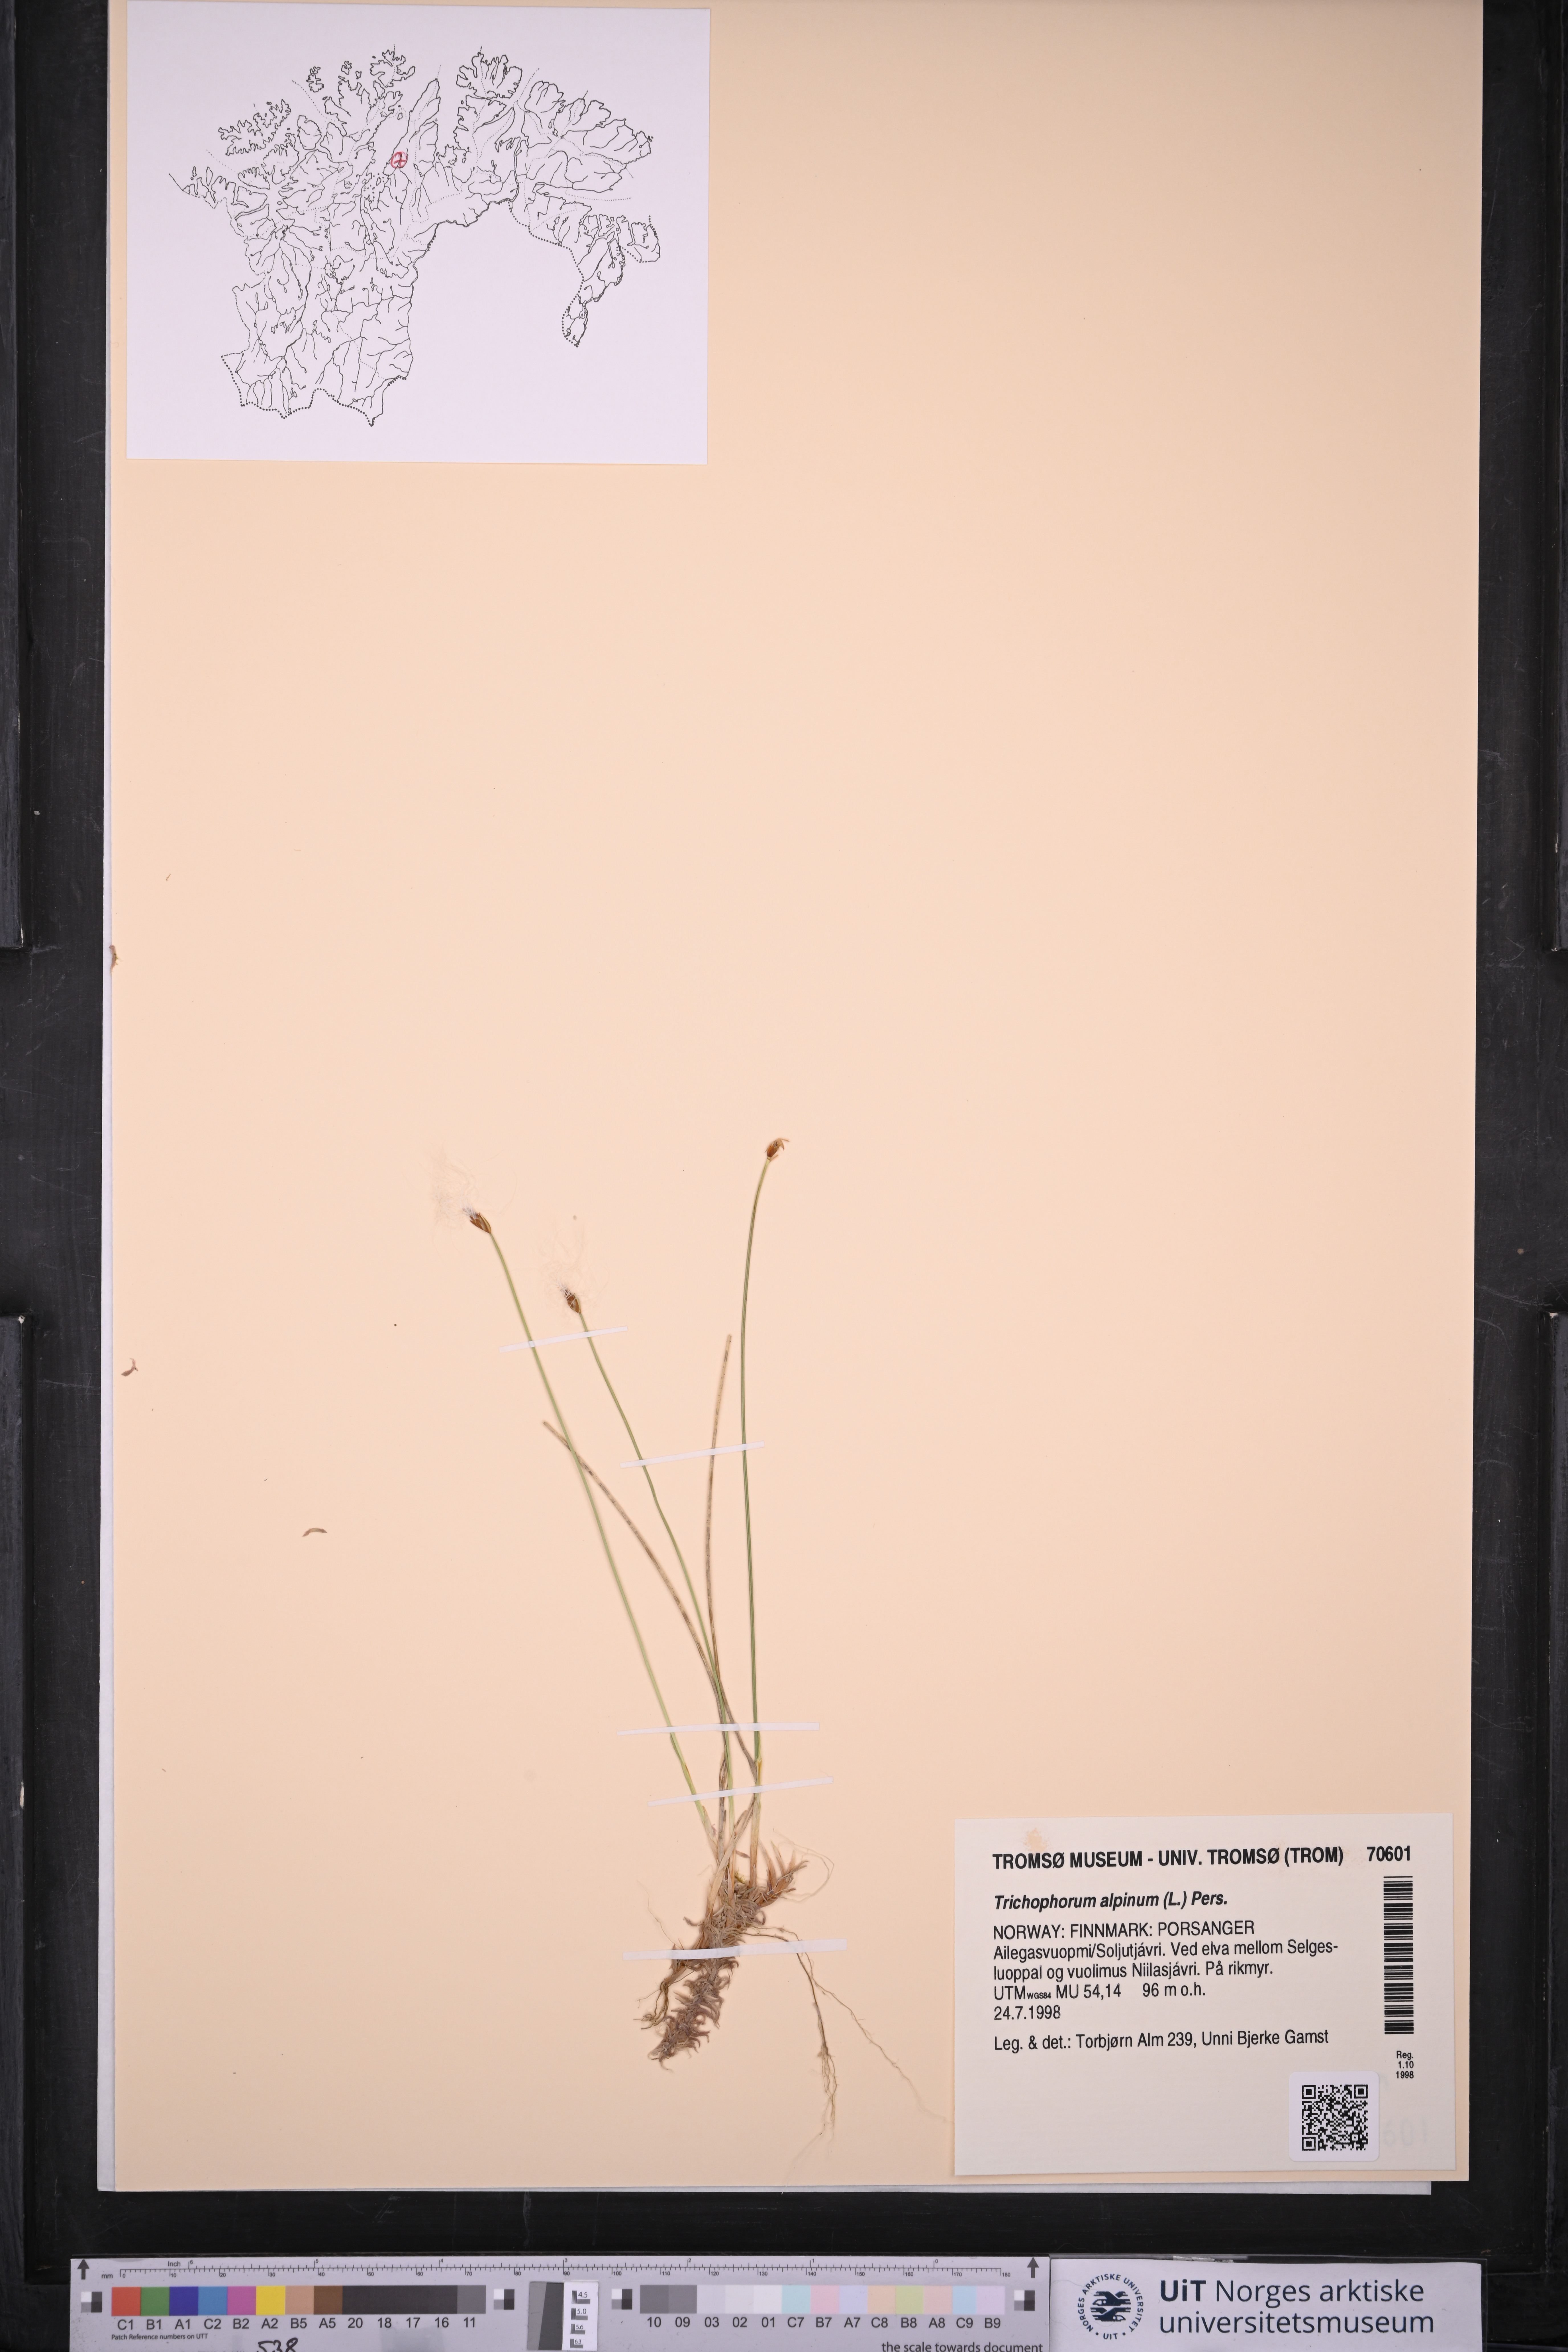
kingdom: Plantae
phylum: Tracheophyta
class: Liliopsida
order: Poales
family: Cyperaceae
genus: Trichophorum
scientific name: Trichophorum alpinum
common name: Alpine bulrush
